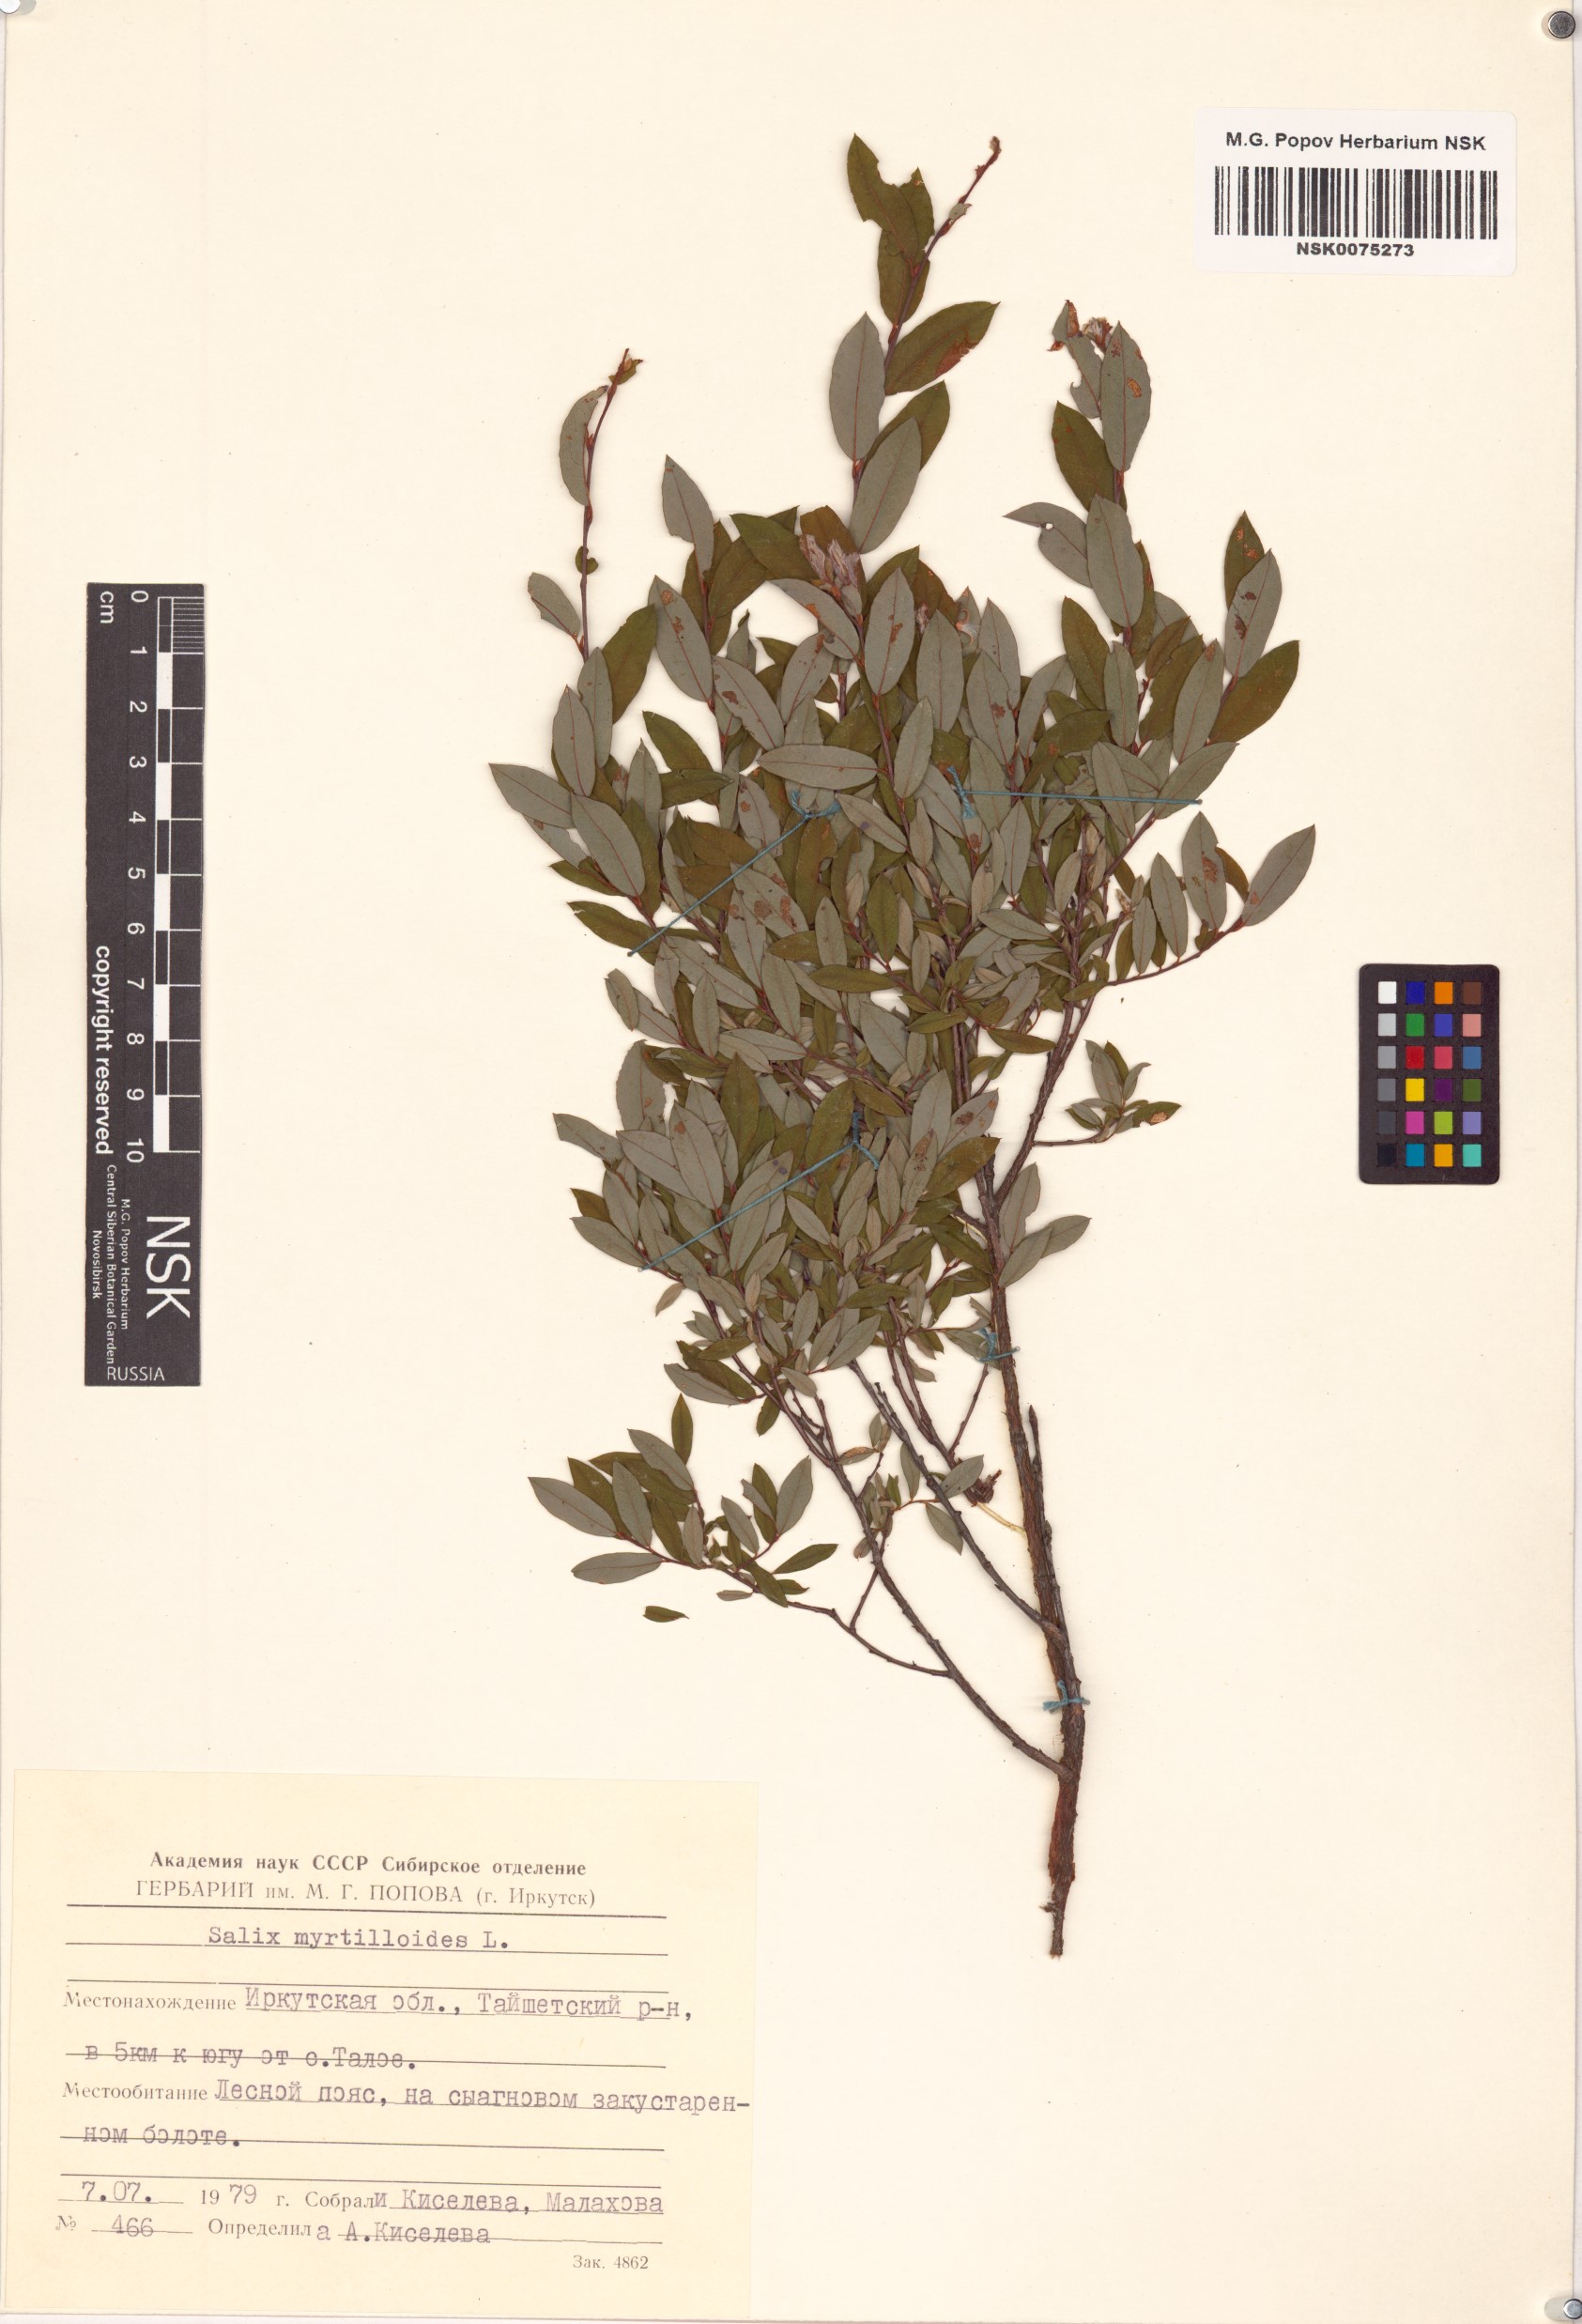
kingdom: Plantae
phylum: Tracheophyta
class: Magnoliopsida
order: Malpighiales
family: Salicaceae
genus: Salix
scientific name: Salix myrtilloides
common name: Myrtle-leaved willow
